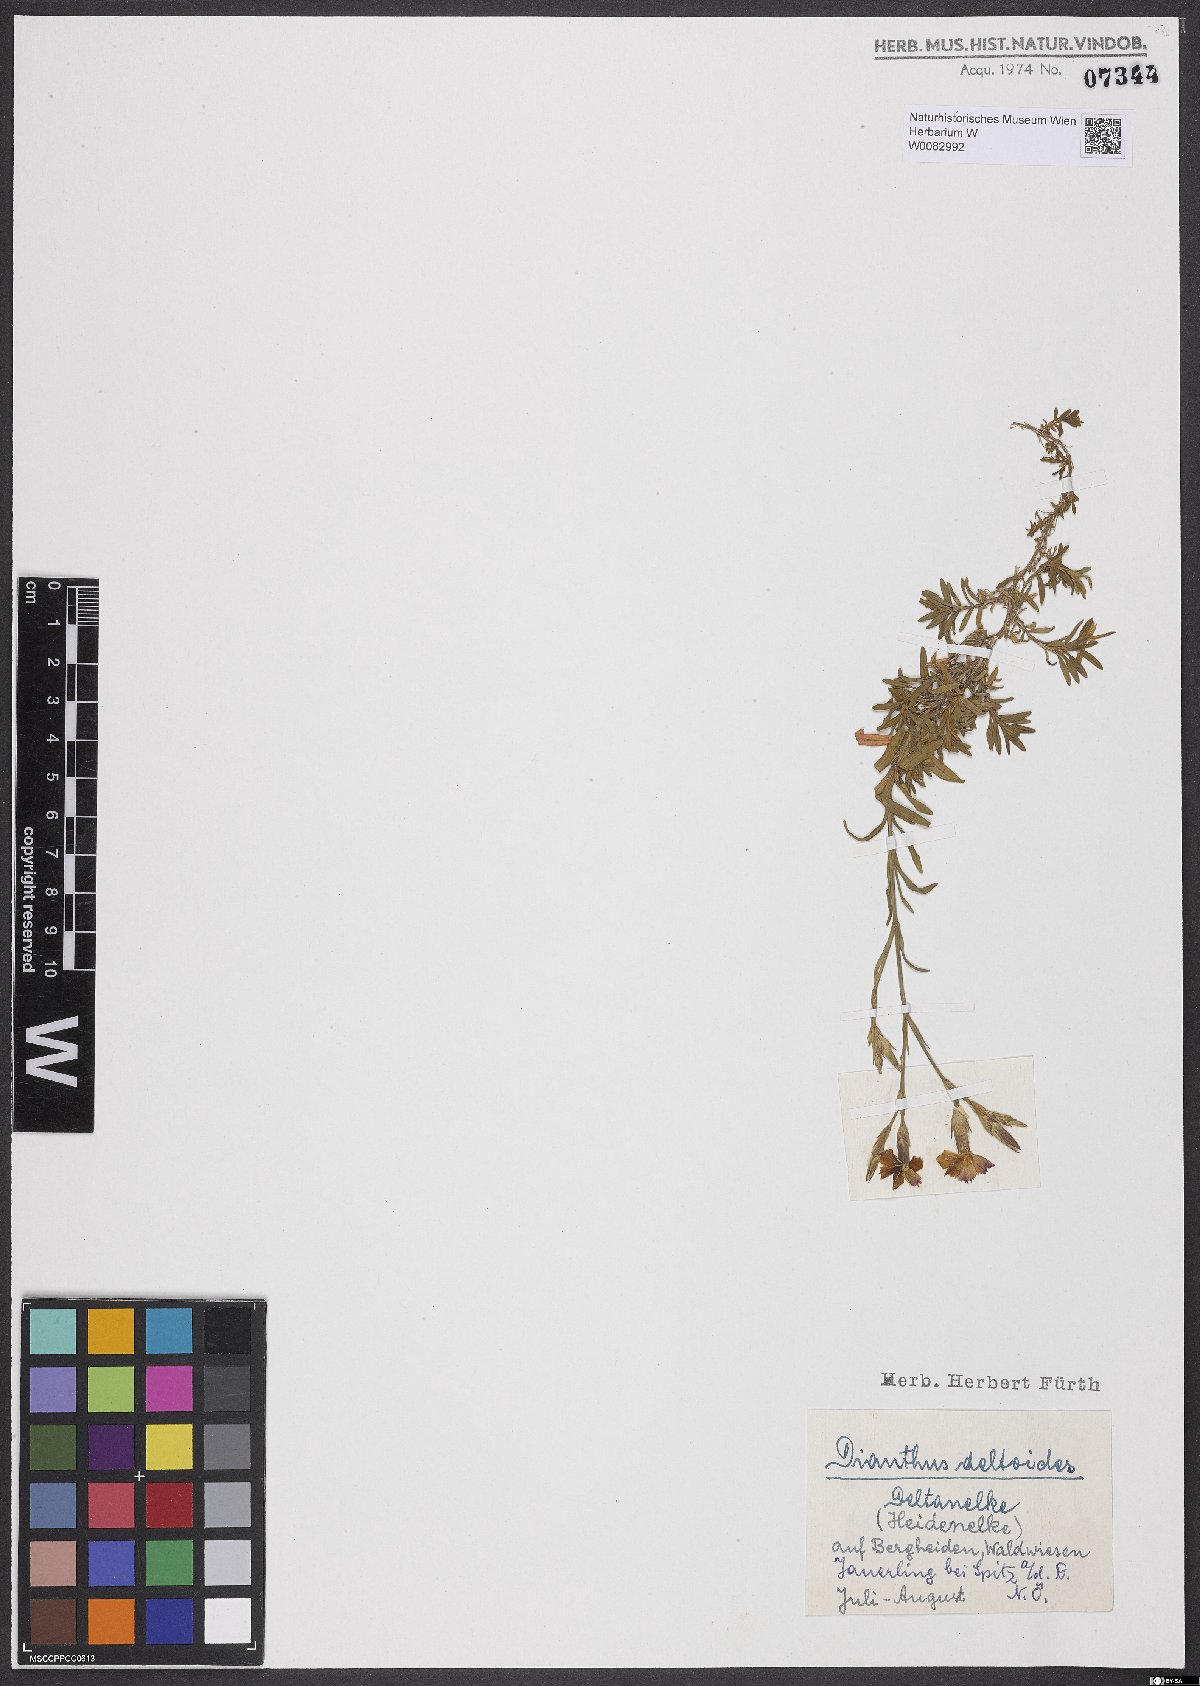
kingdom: Plantae
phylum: Tracheophyta
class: Magnoliopsida
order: Caryophyllales
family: Caryophyllaceae
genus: Dianthus
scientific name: Dianthus deltoides
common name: Maiden pink
